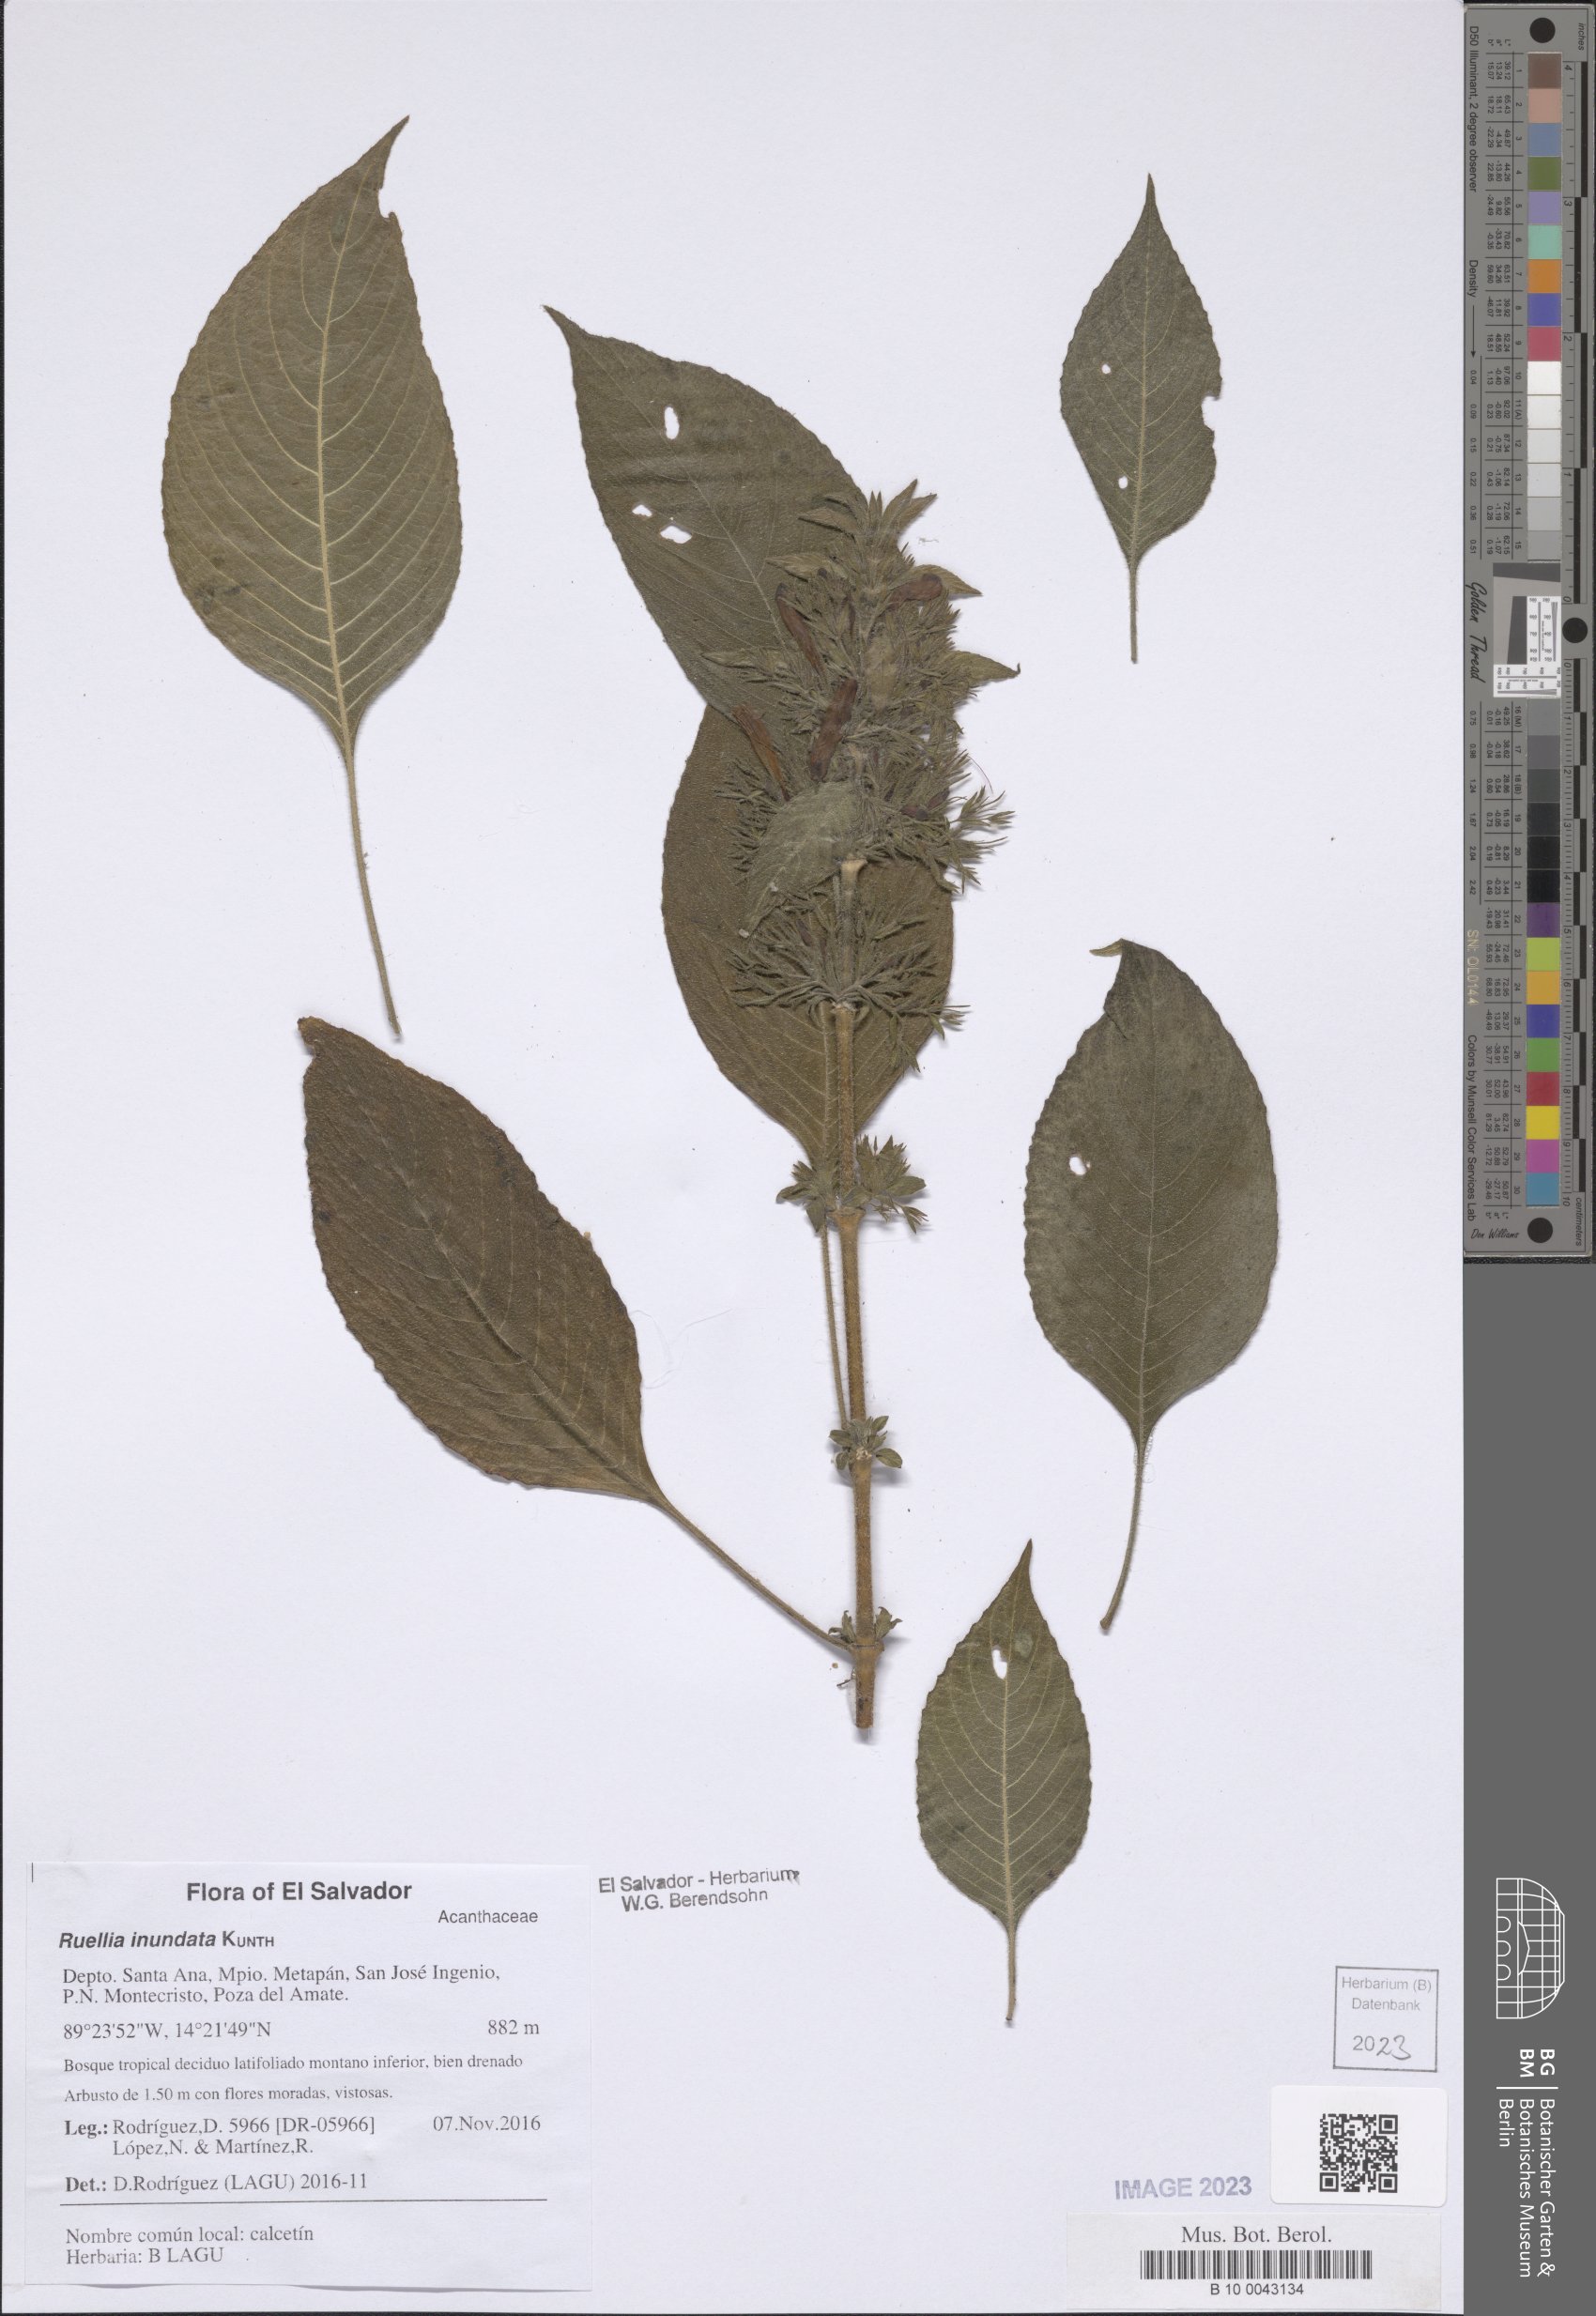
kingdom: Plantae
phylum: Tracheophyta
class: Magnoliopsida
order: Lamiales
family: Acanthaceae
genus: Ruellia
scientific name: Ruellia inundata
